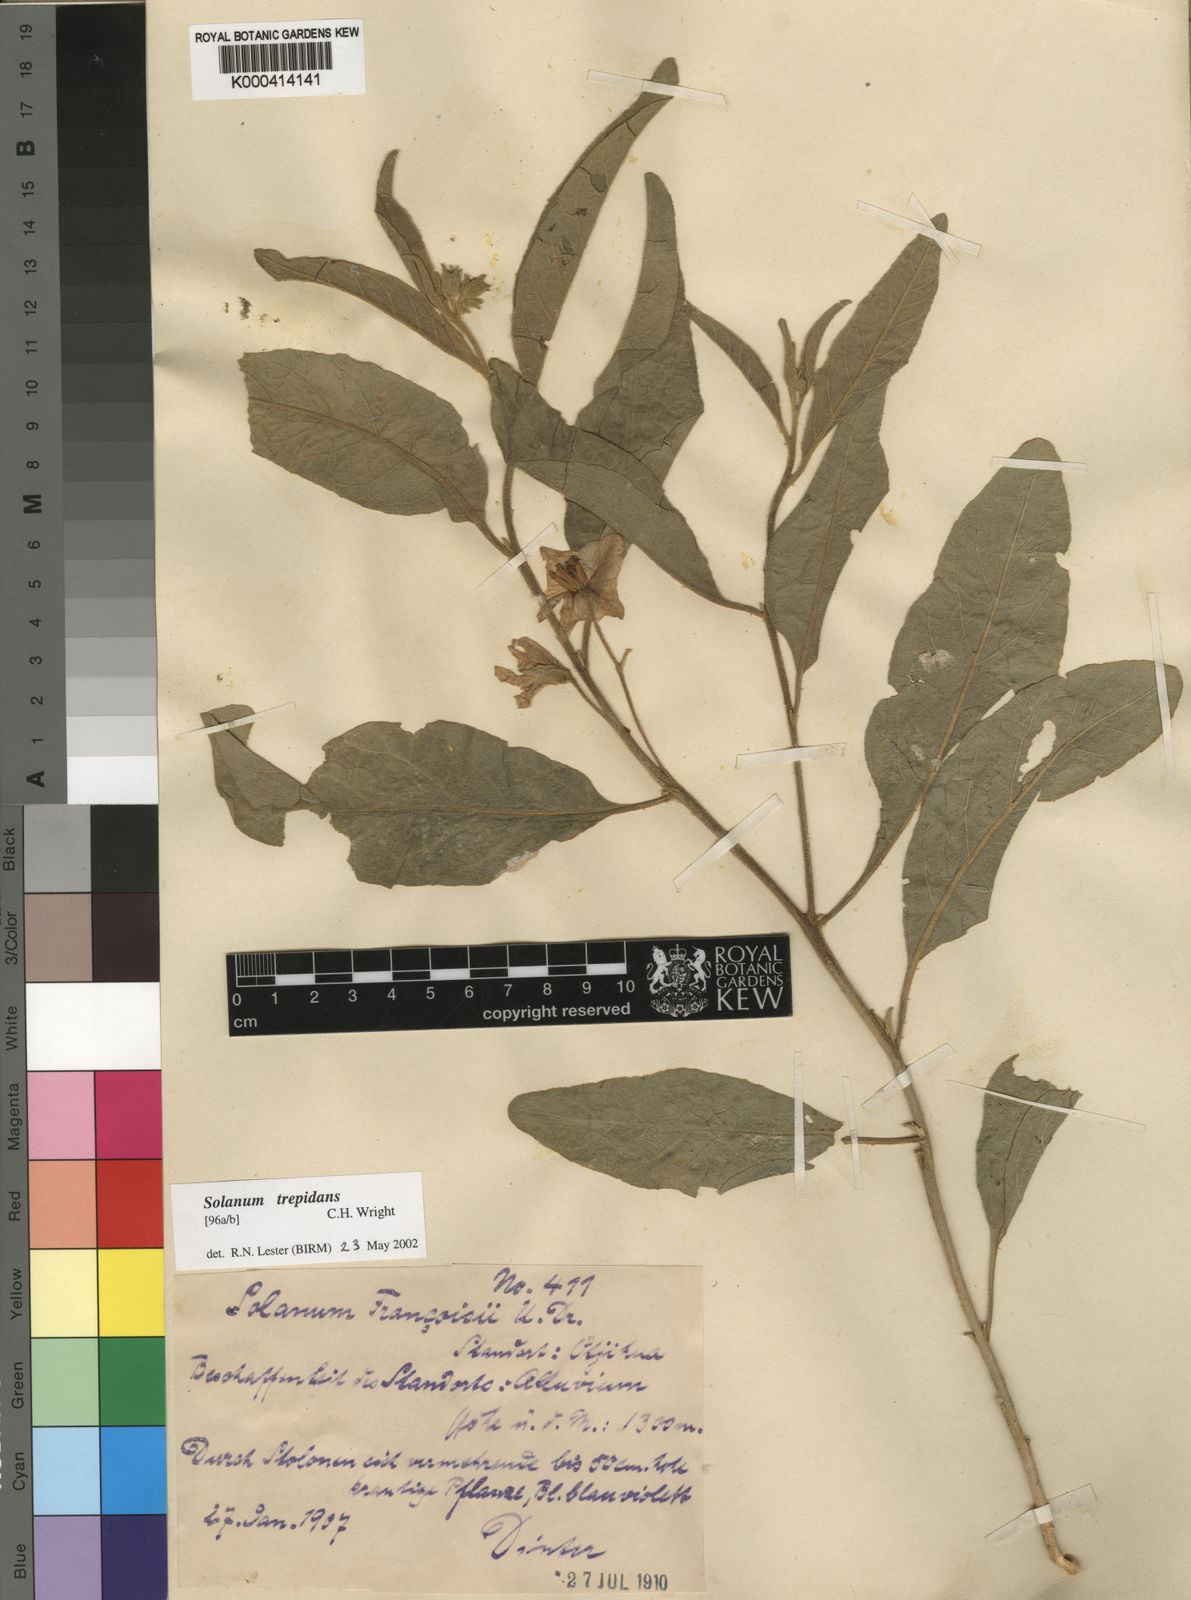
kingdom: Plantae
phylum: Tracheophyta
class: Magnoliopsida
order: Solanales
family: Solanaceae
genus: Solanum
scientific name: Solanum
